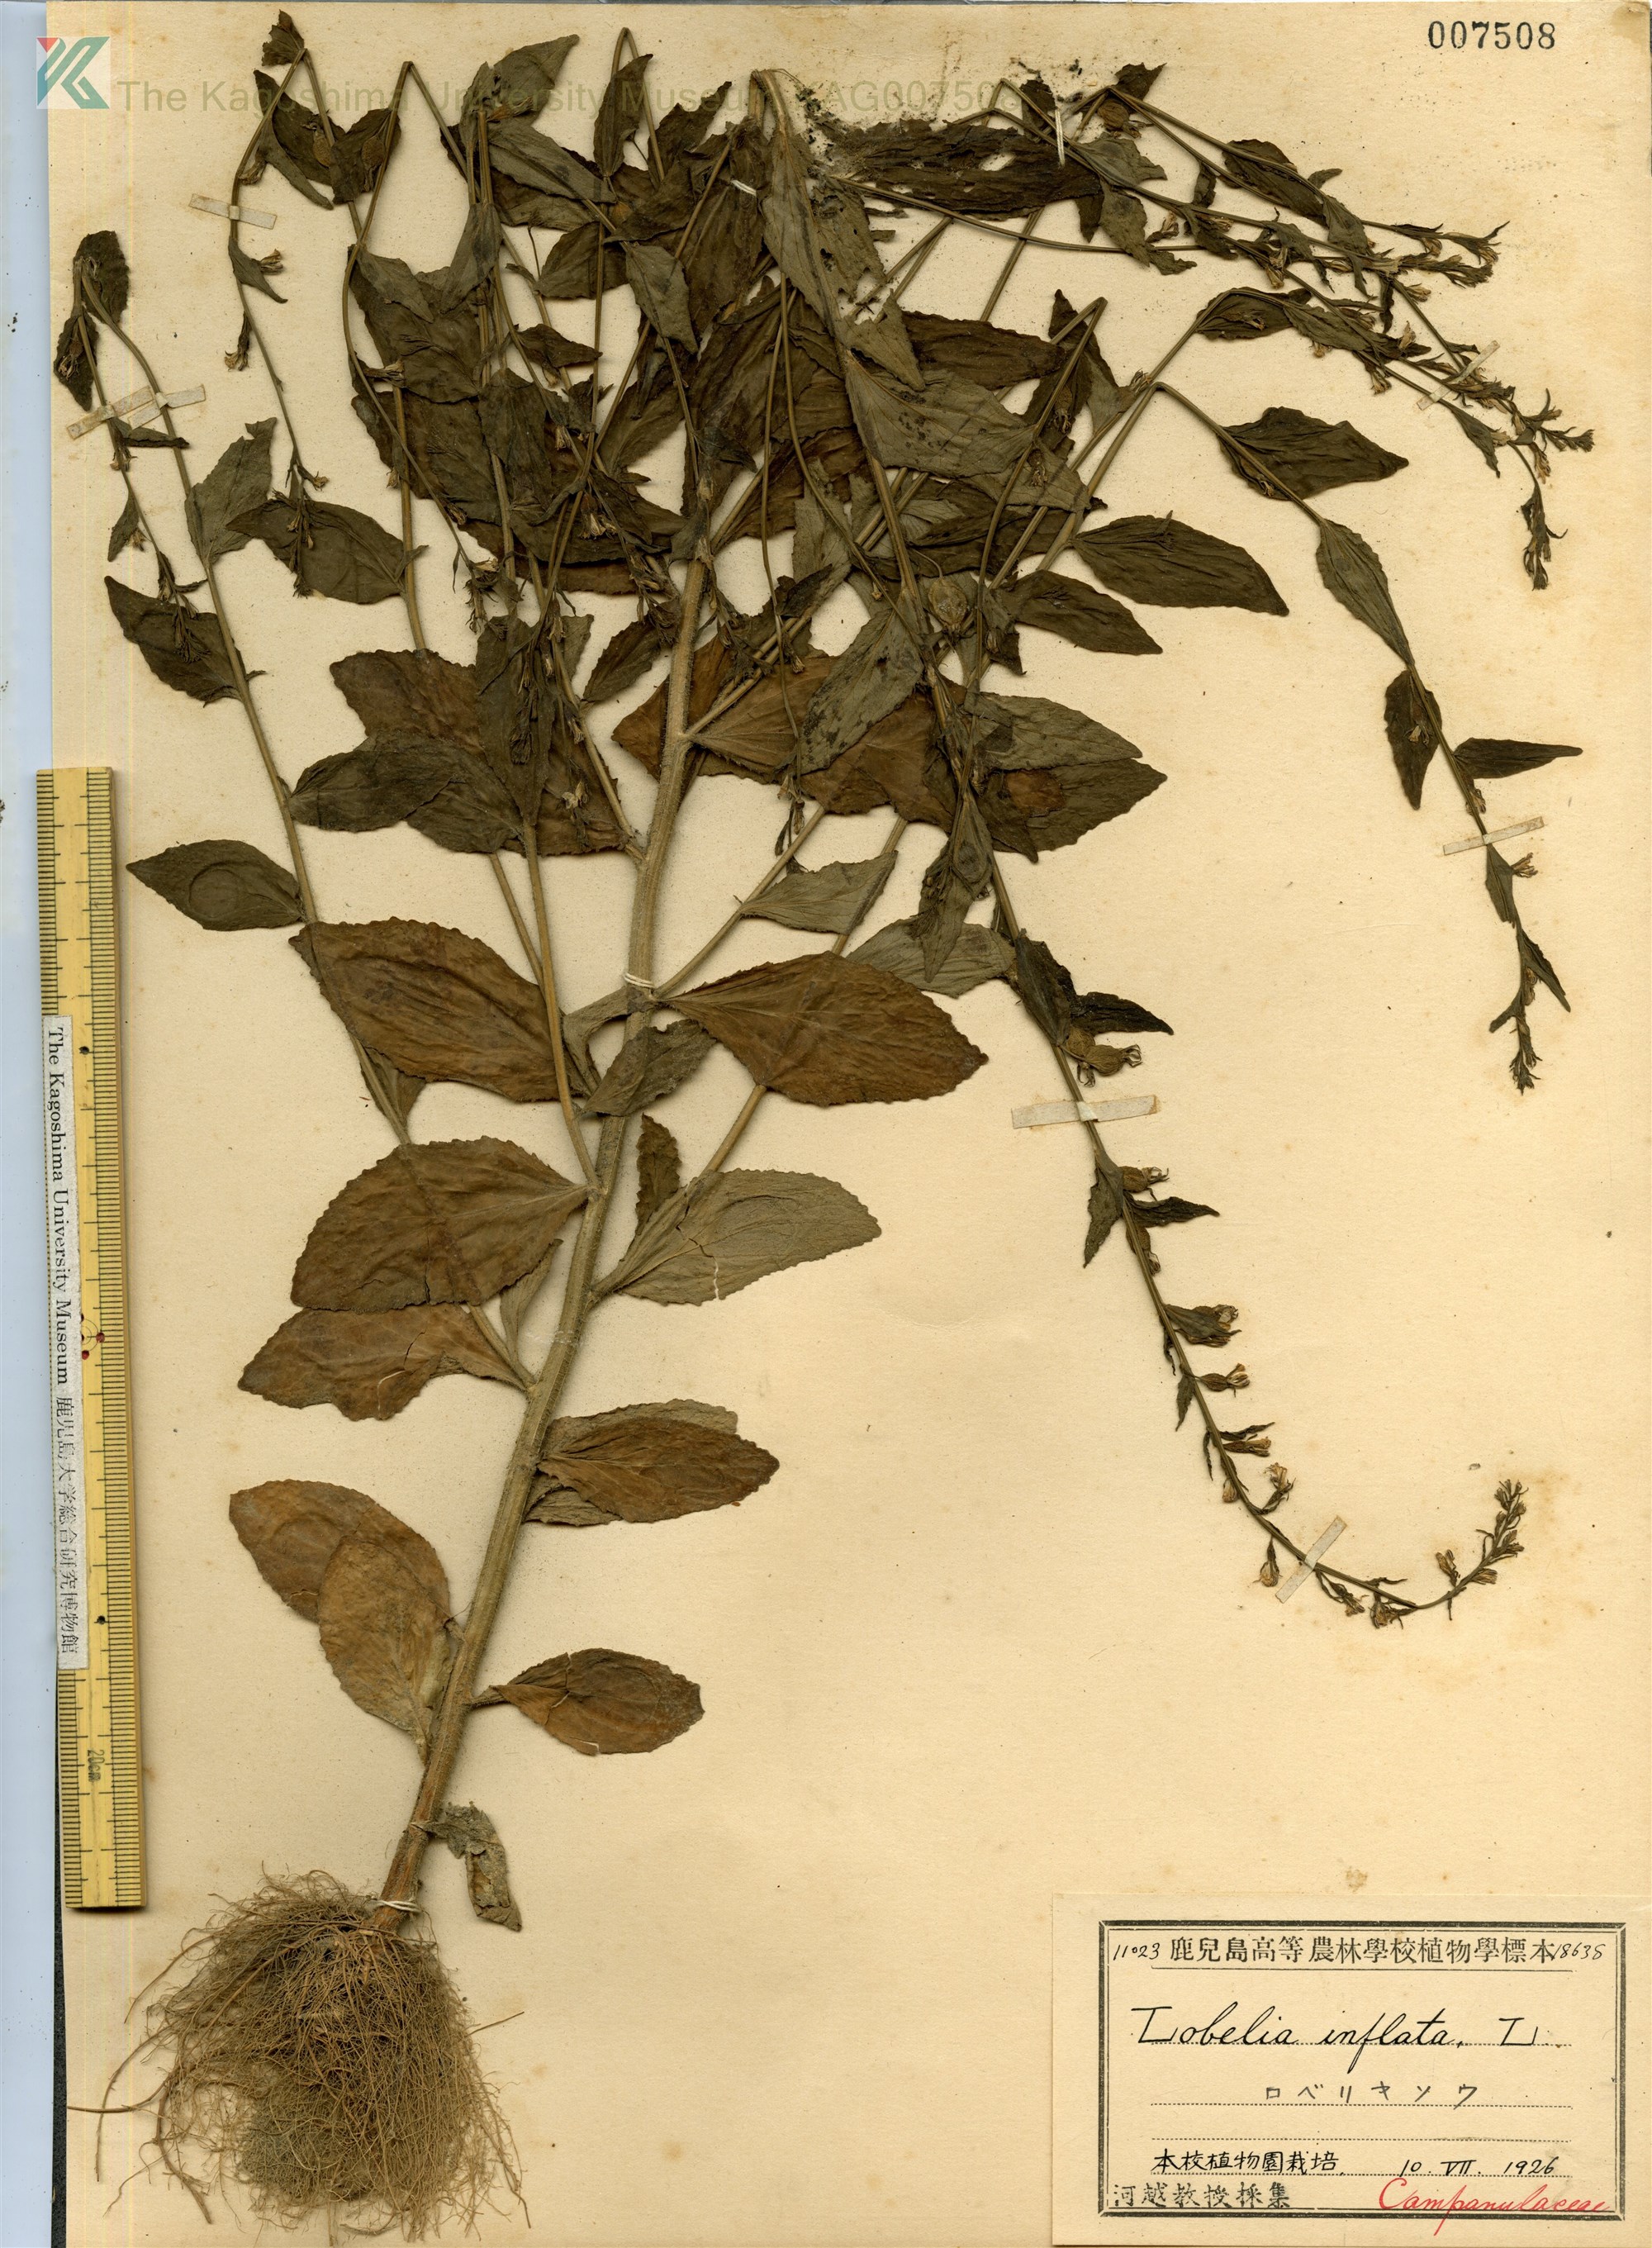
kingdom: Plantae
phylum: Tracheophyta
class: Magnoliopsida
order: Asterales
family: Campanulaceae
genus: Lobelia
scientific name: Lobelia inflata
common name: Indian tobacco
